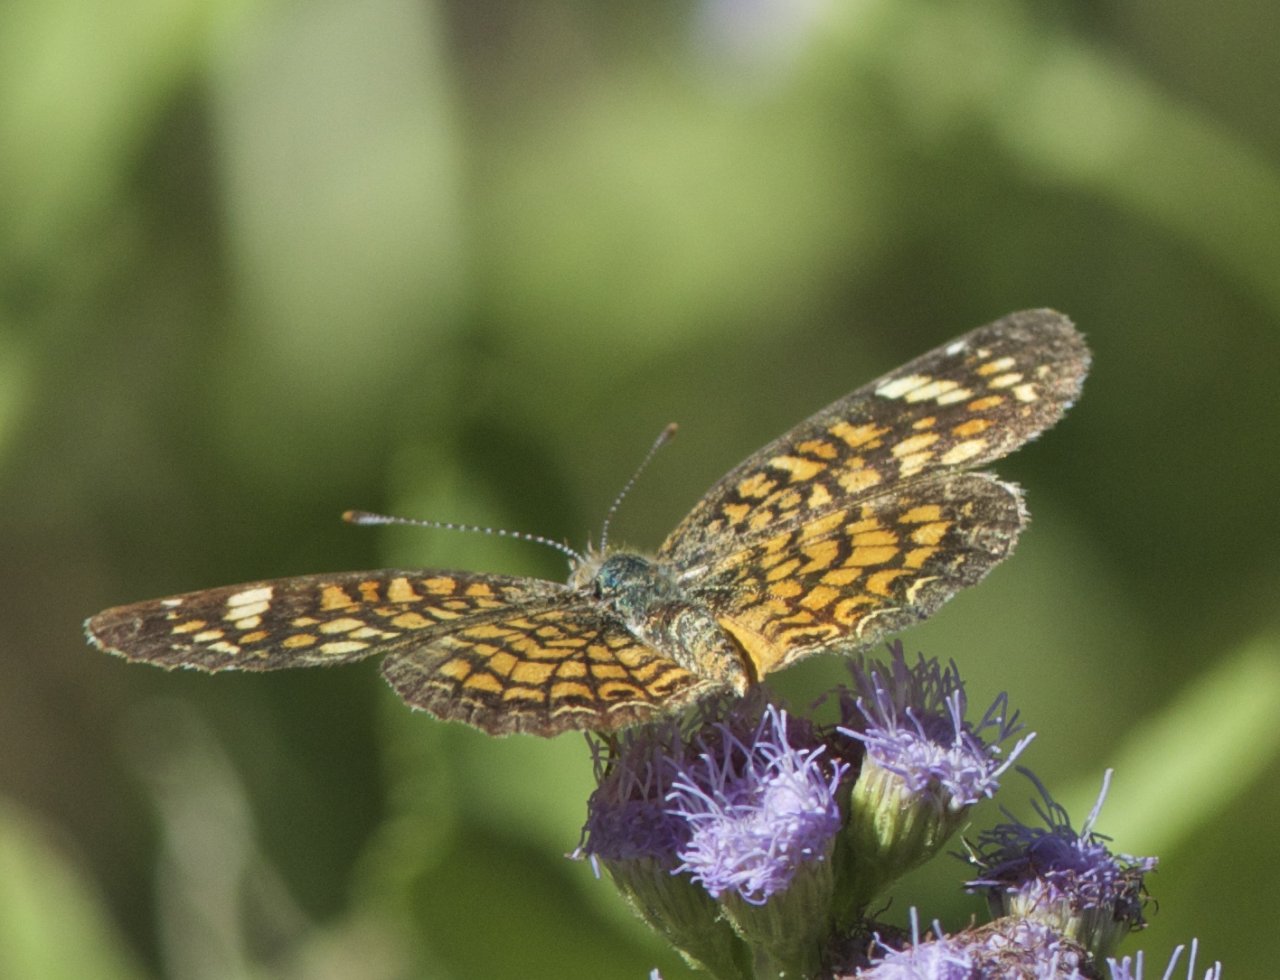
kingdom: Animalia
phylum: Arthropoda
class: Insecta
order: Lepidoptera
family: Nymphalidae
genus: Phyciodes
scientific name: Phyciodes vesta
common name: Vesta Crescent
